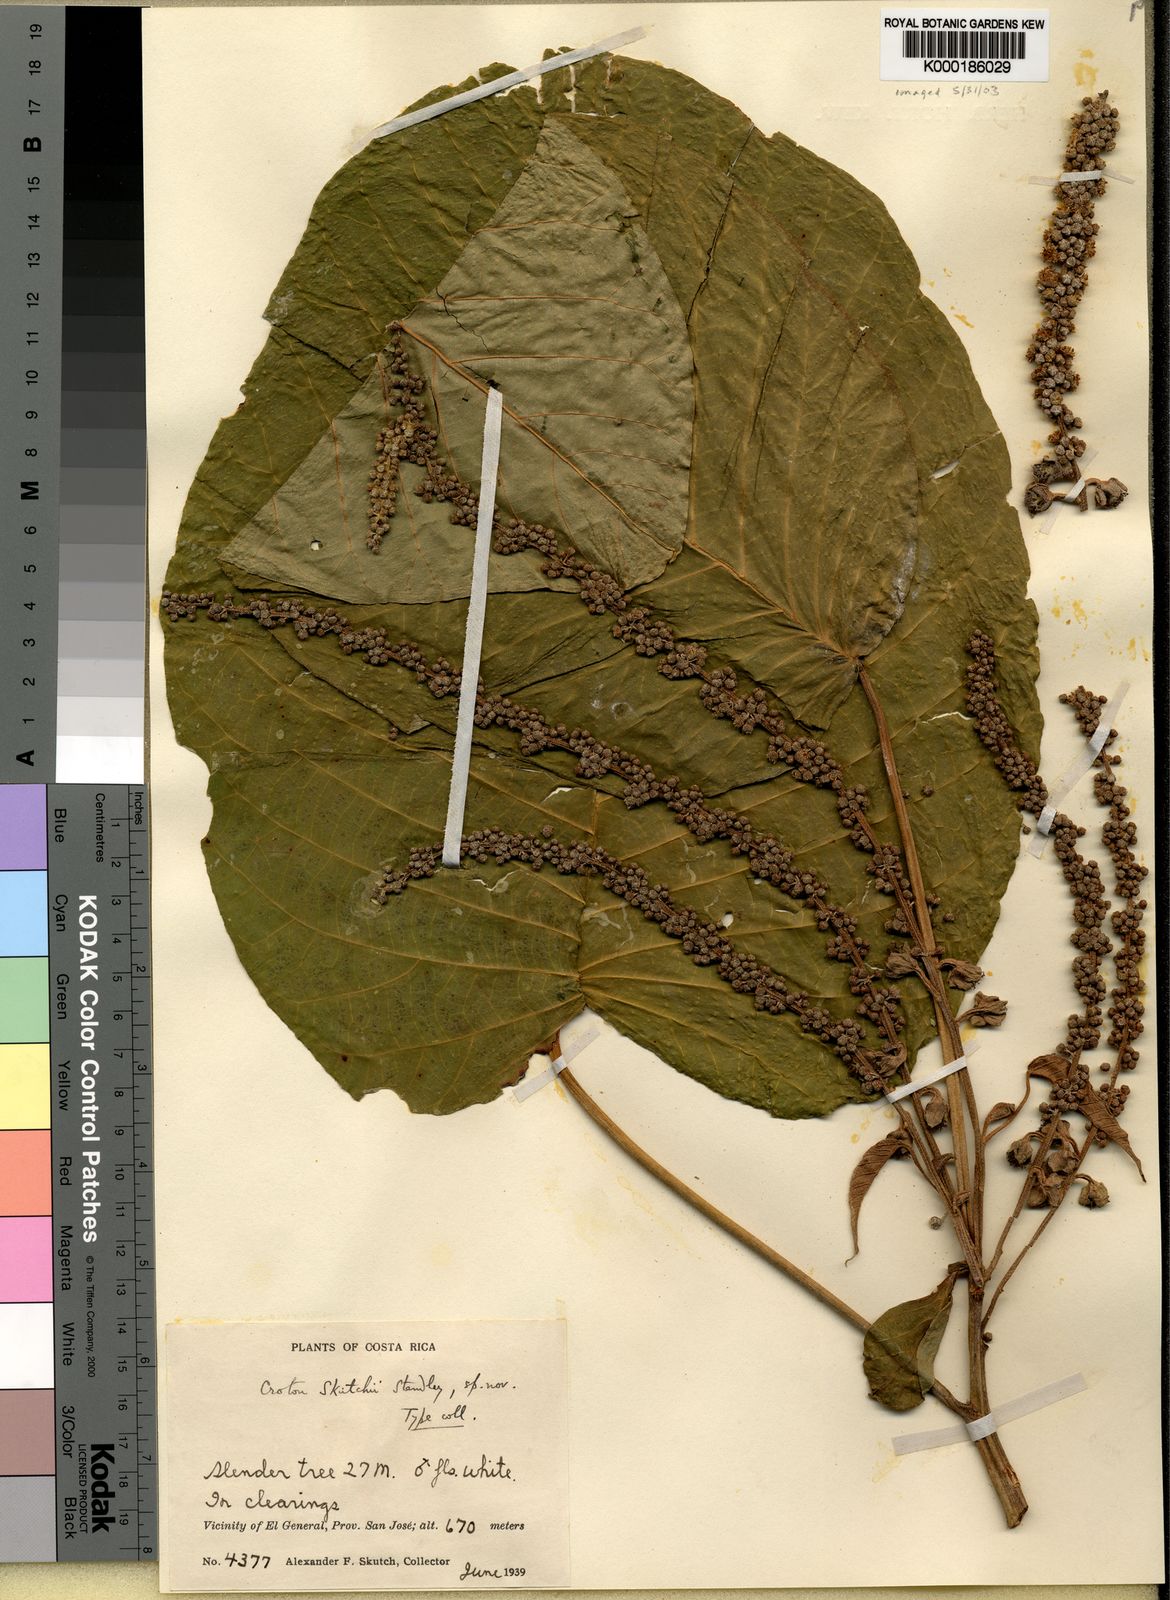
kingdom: Plantae
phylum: Tracheophyta
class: Magnoliopsida
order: Malpighiales
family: Euphorbiaceae
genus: Croton
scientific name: Croton costatus
